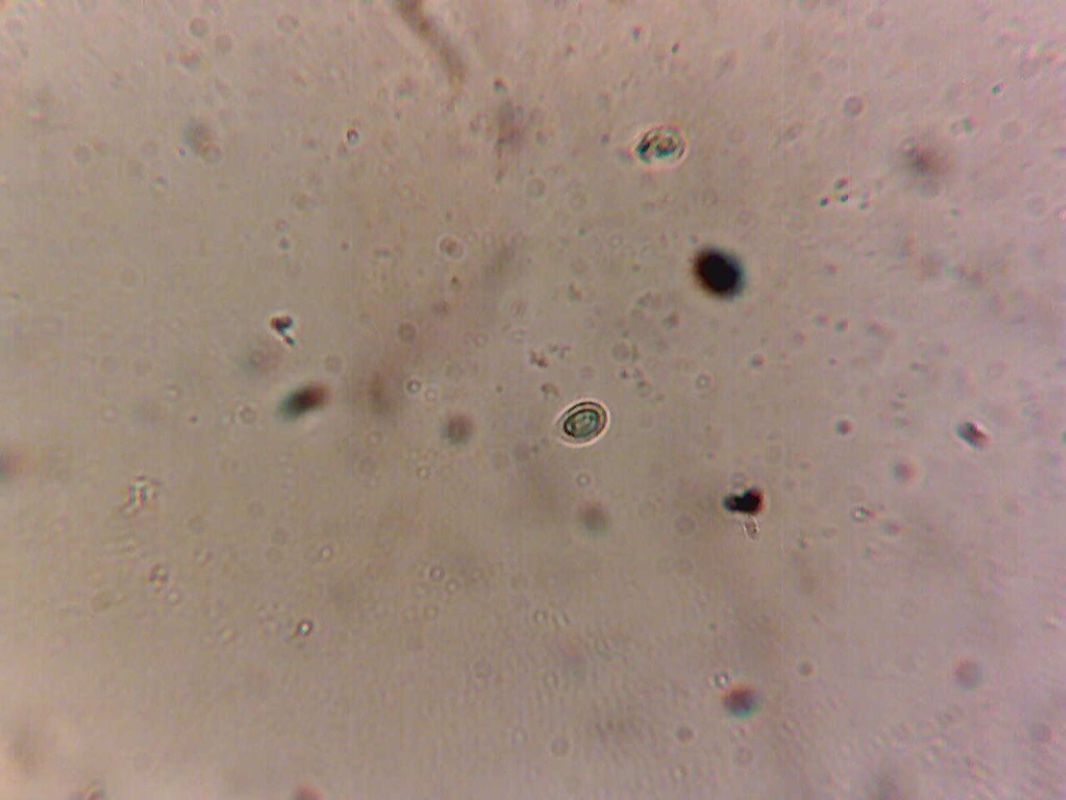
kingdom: Fungi
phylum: Basidiomycota
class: Agaricomycetes
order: Agaricales
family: Tricholomataceae
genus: Gamundia
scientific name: Gamundia striatula
